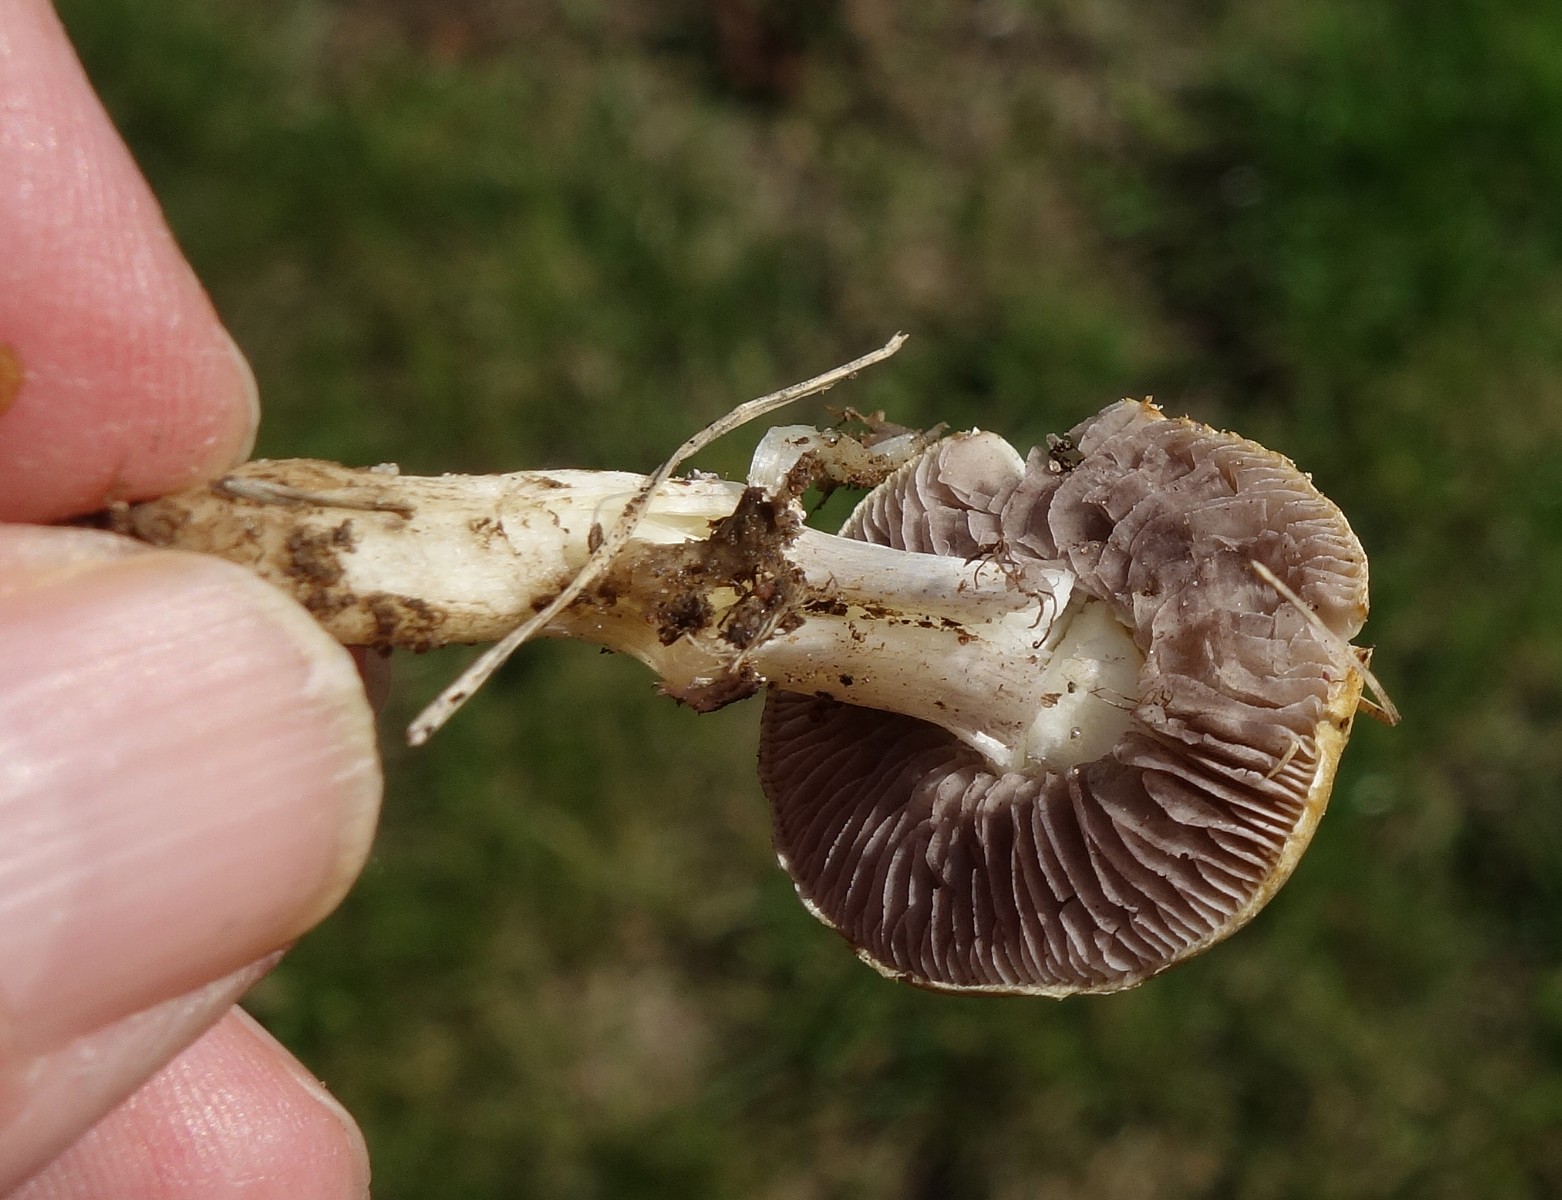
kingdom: Fungi
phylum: Basidiomycota
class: Agaricomycetes
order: Agaricales
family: Hymenogastraceae
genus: Psilocybe
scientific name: Psilocybe coronilla
